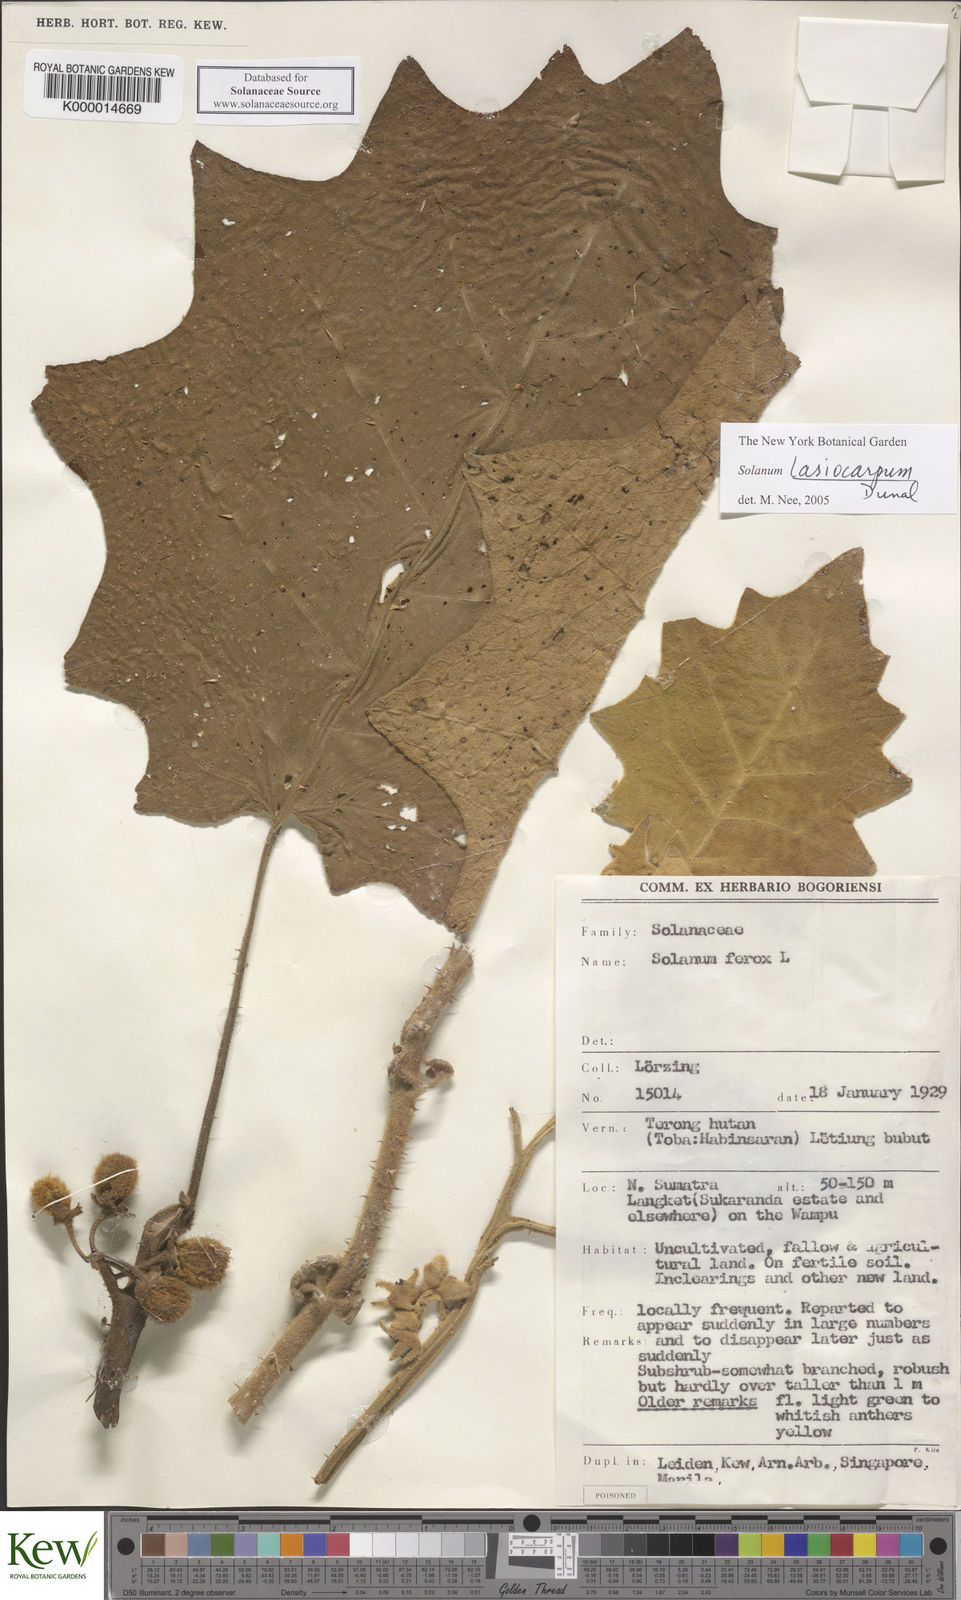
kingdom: Plantae
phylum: Tracheophyta
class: Magnoliopsida
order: Solanales
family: Solanaceae
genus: Solanum
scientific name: Solanum lasiocarpum
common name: Indian nightshade
